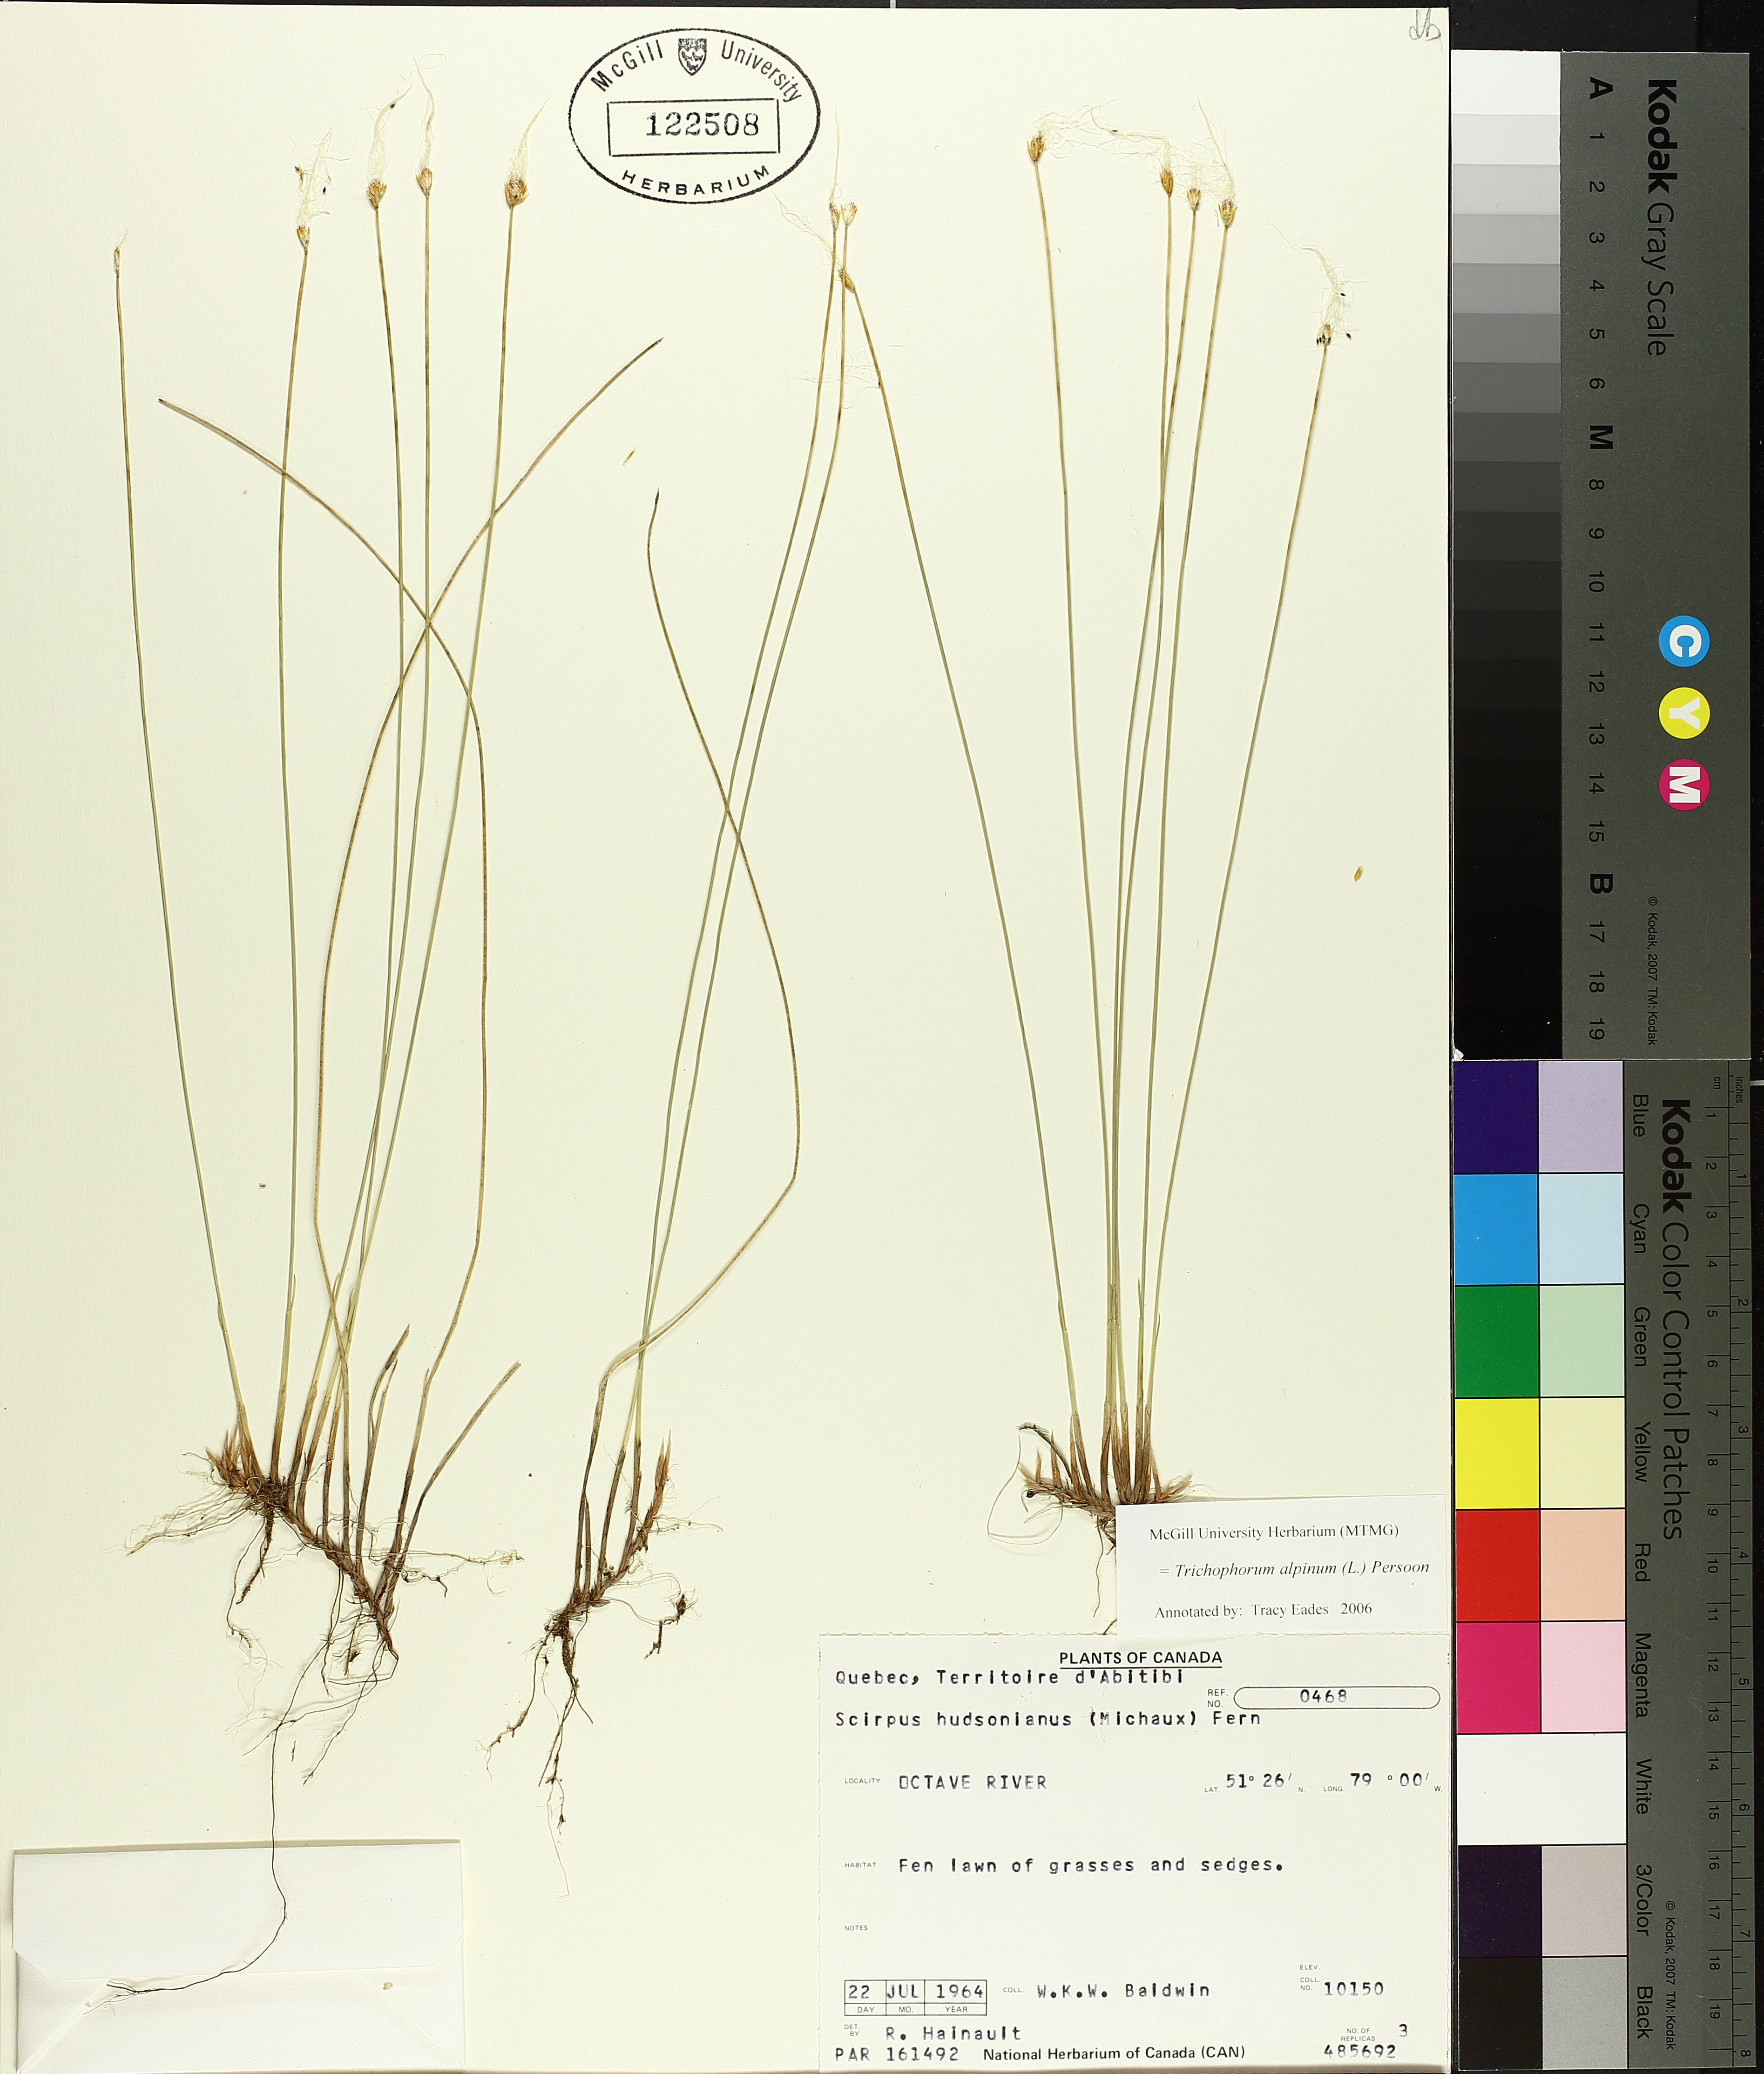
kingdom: Plantae
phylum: Tracheophyta
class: Liliopsida
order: Poales
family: Cyperaceae
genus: Trichophorum
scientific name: Trichophorum alpinum
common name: Alpine bulrush
